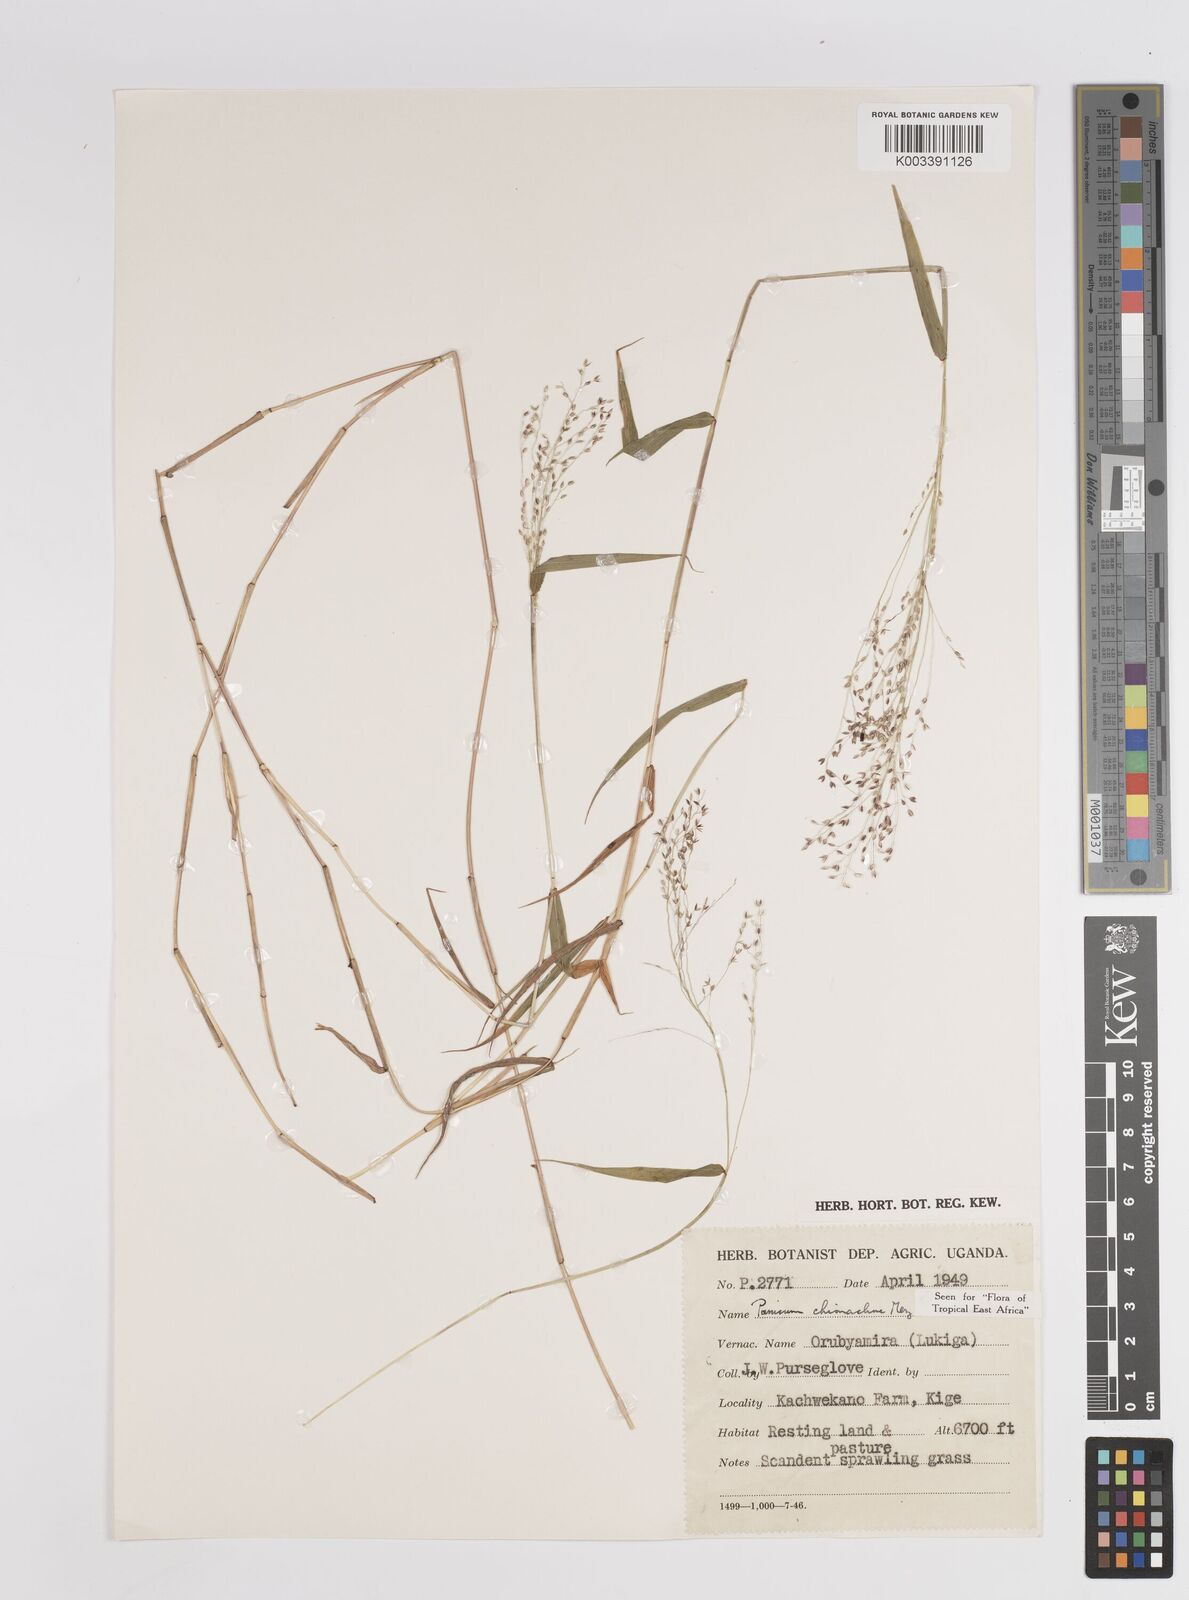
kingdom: Plantae
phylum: Tracheophyta
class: Liliopsida
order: Poales
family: Poaceae
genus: Panicum
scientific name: Panicum chionachne
